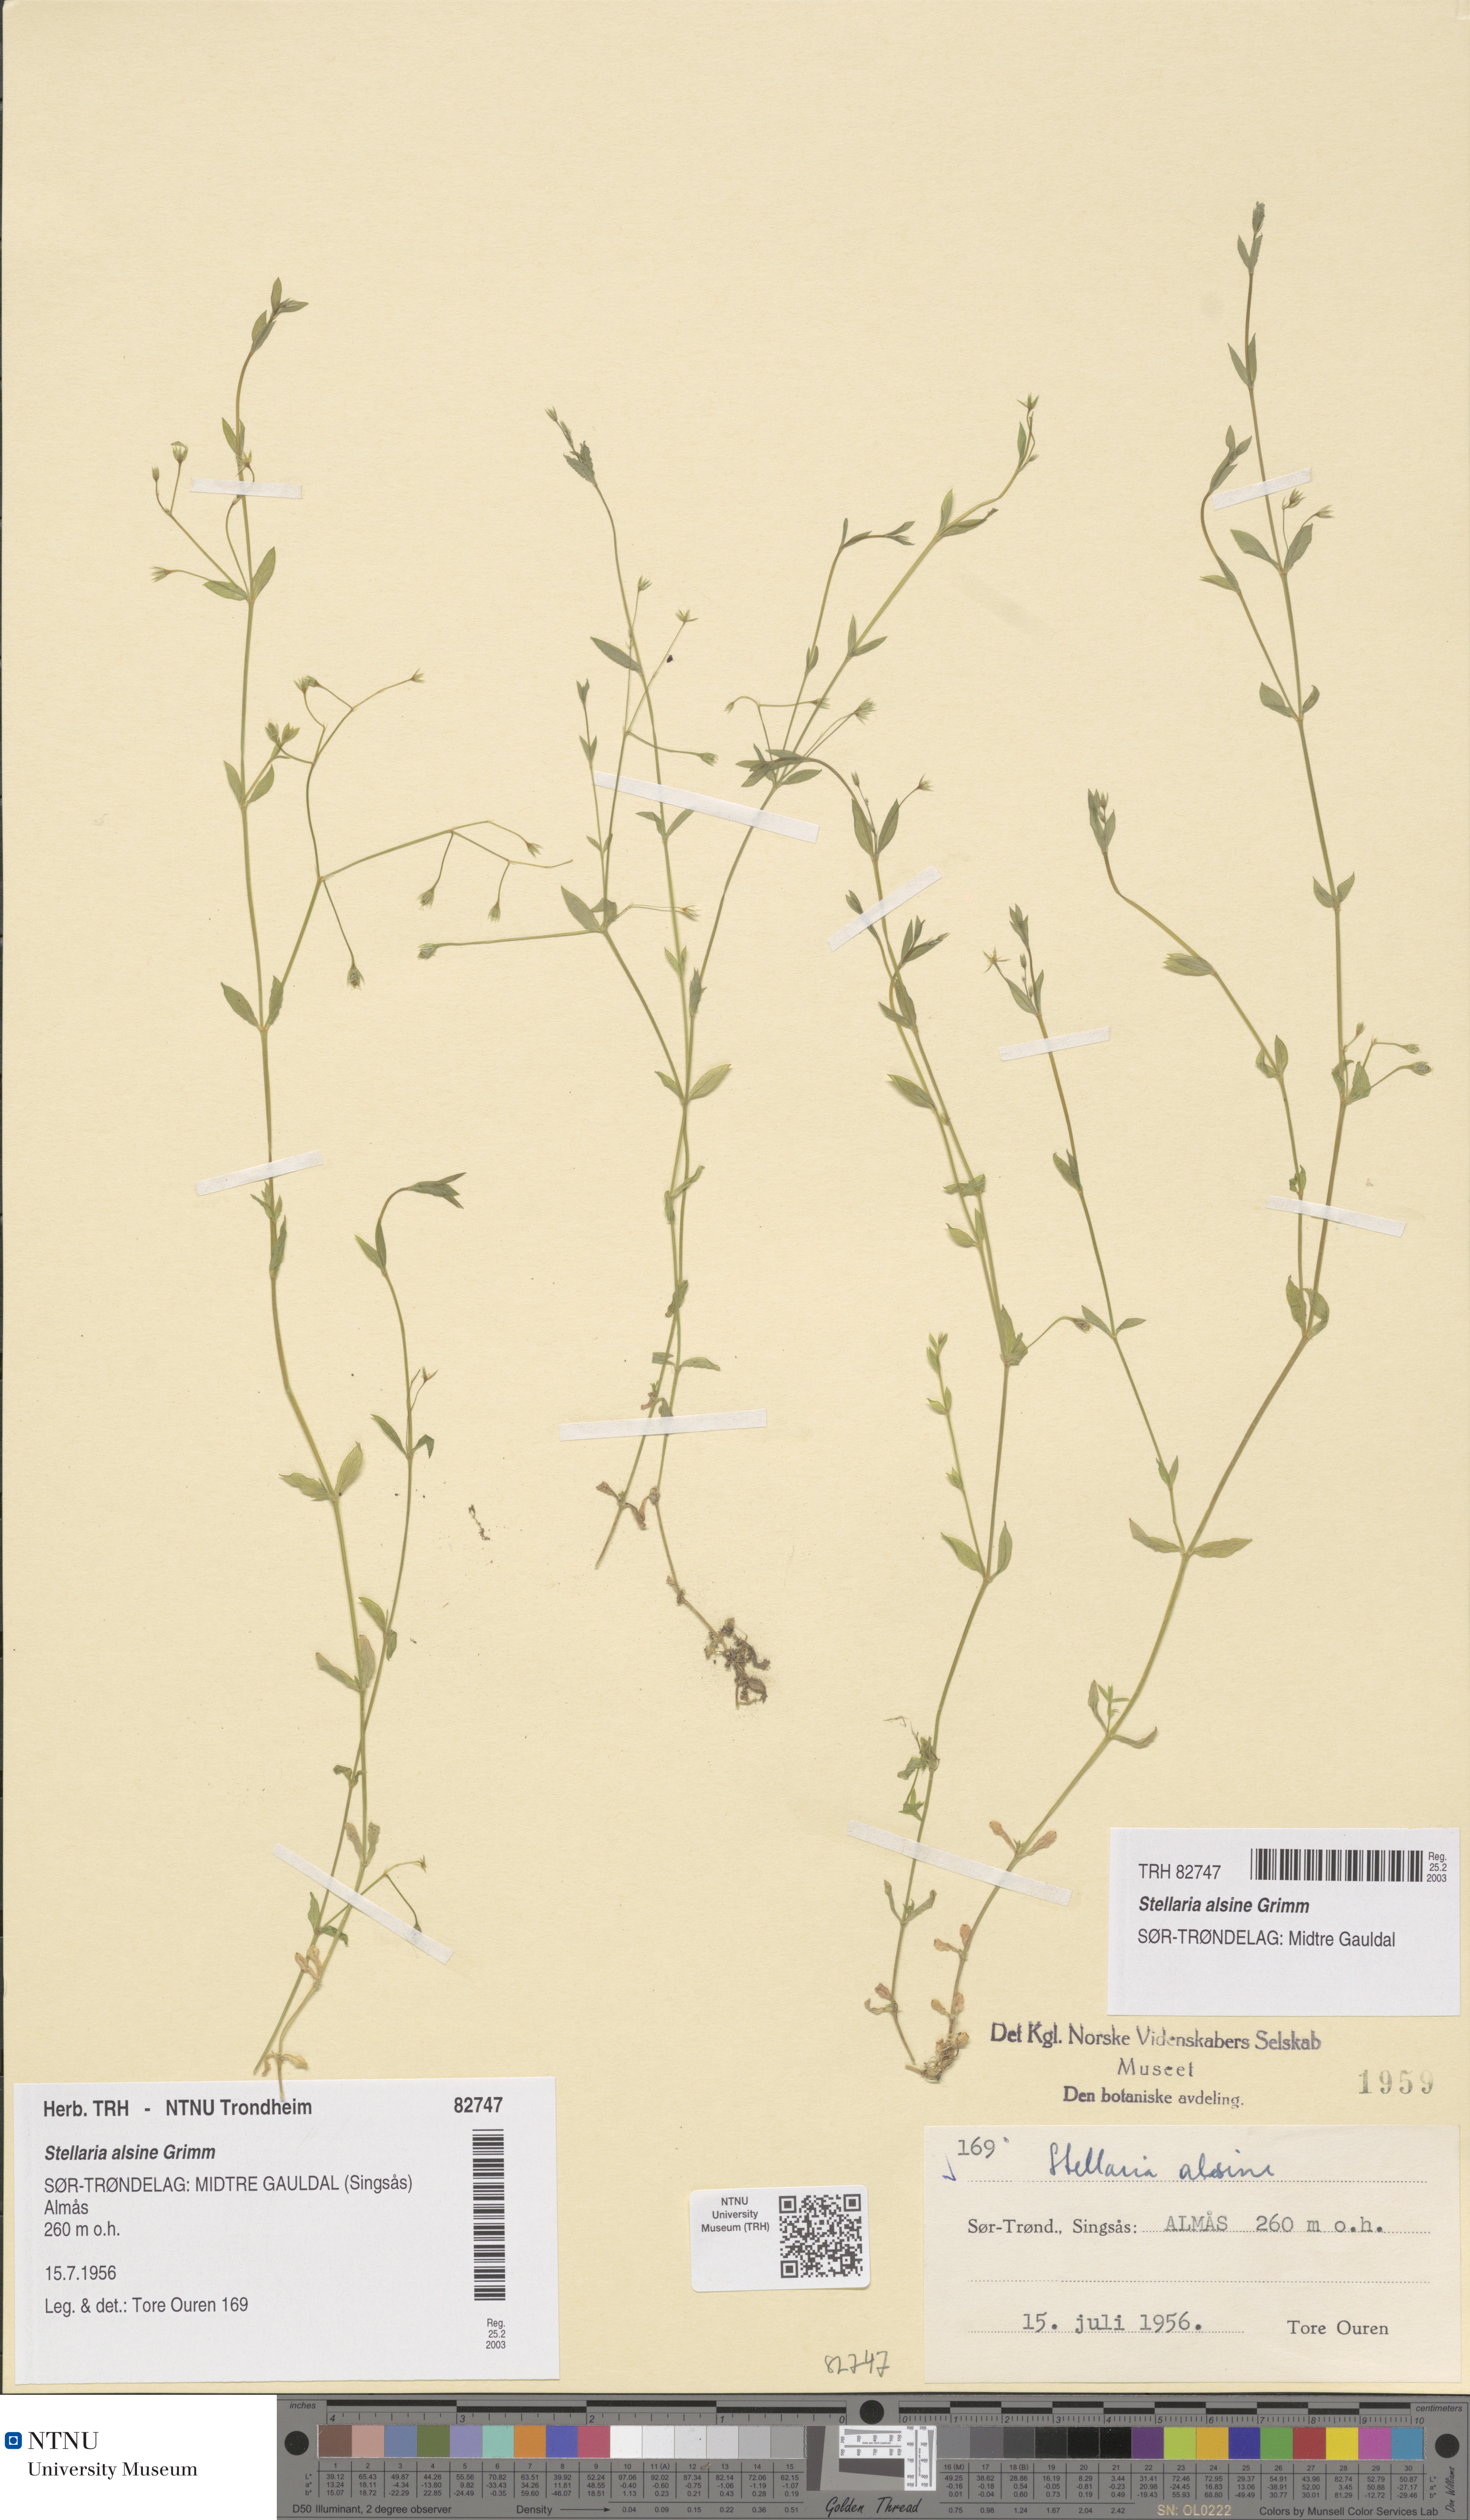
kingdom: Plantae
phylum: Tracheophyta
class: Magnoliopsida
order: Caryophyllales
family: Caryophyllaceae
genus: Stellaria
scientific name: Stellaria alsine
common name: Bog stitchwort
